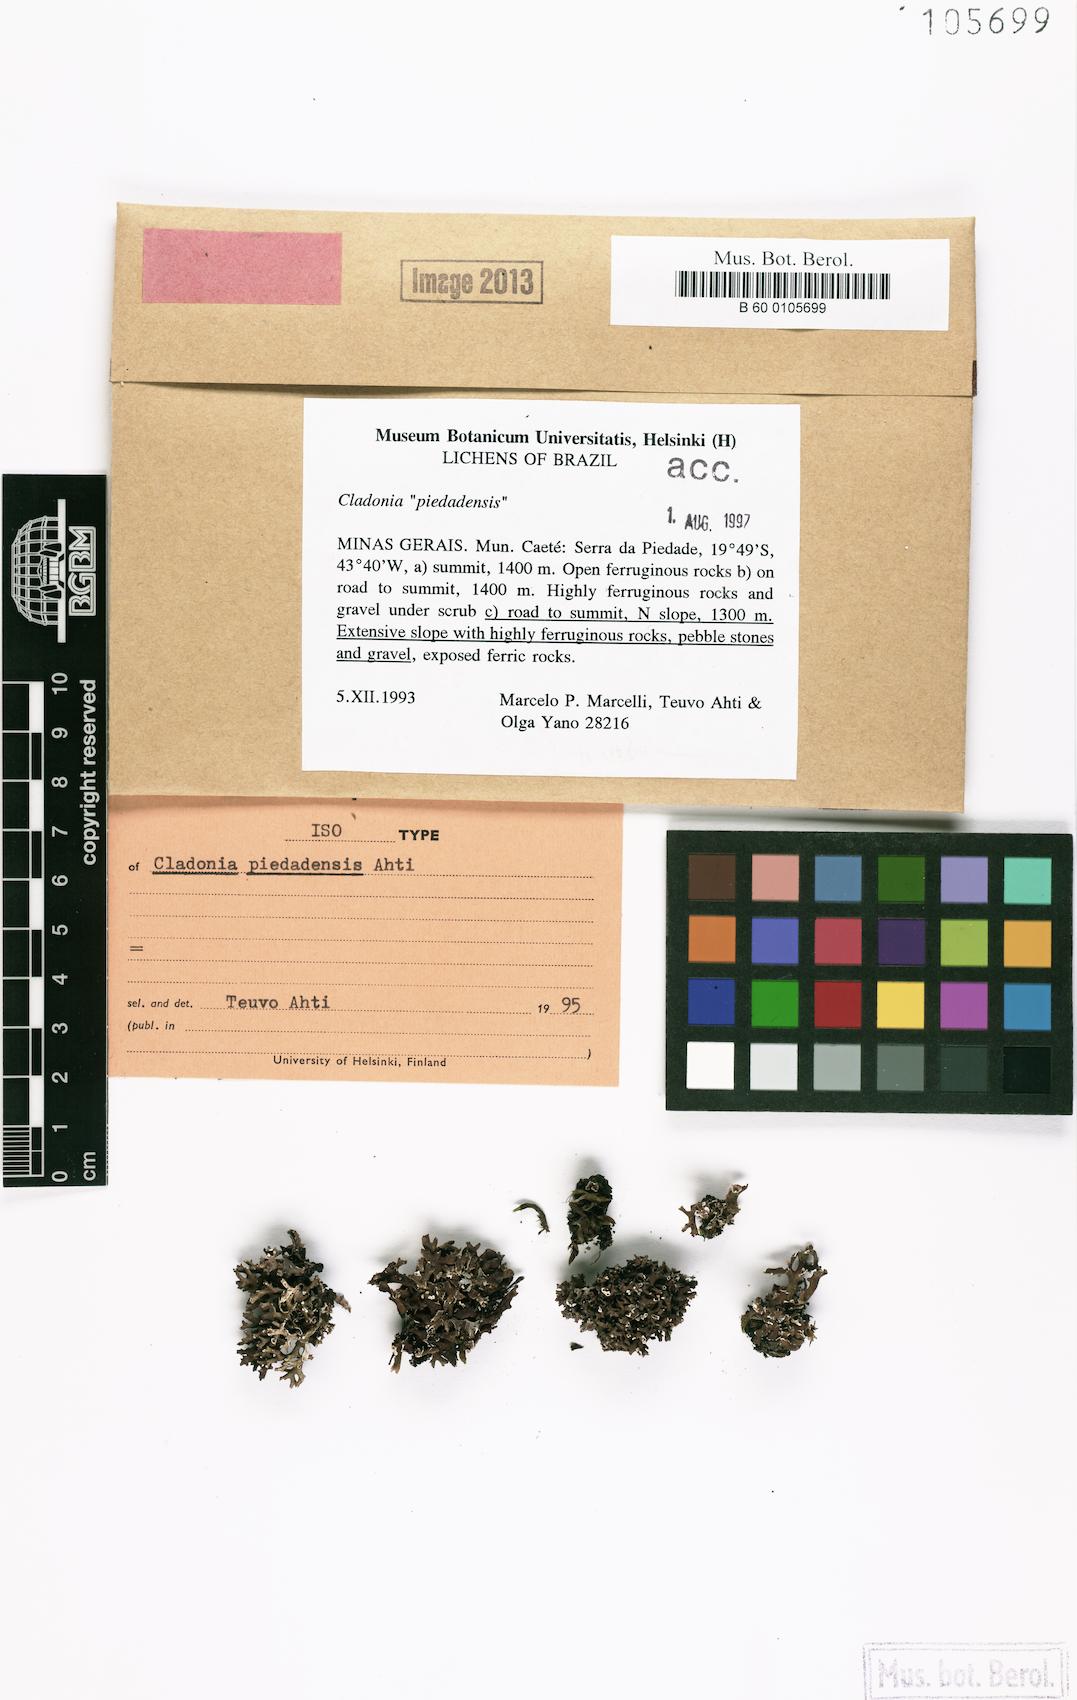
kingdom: Fungi
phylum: Ascomycota
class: Lecanoromycetes
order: Lecanorales
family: Cladoniaceae
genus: Cladonia
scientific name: Cladonia piedadensis
